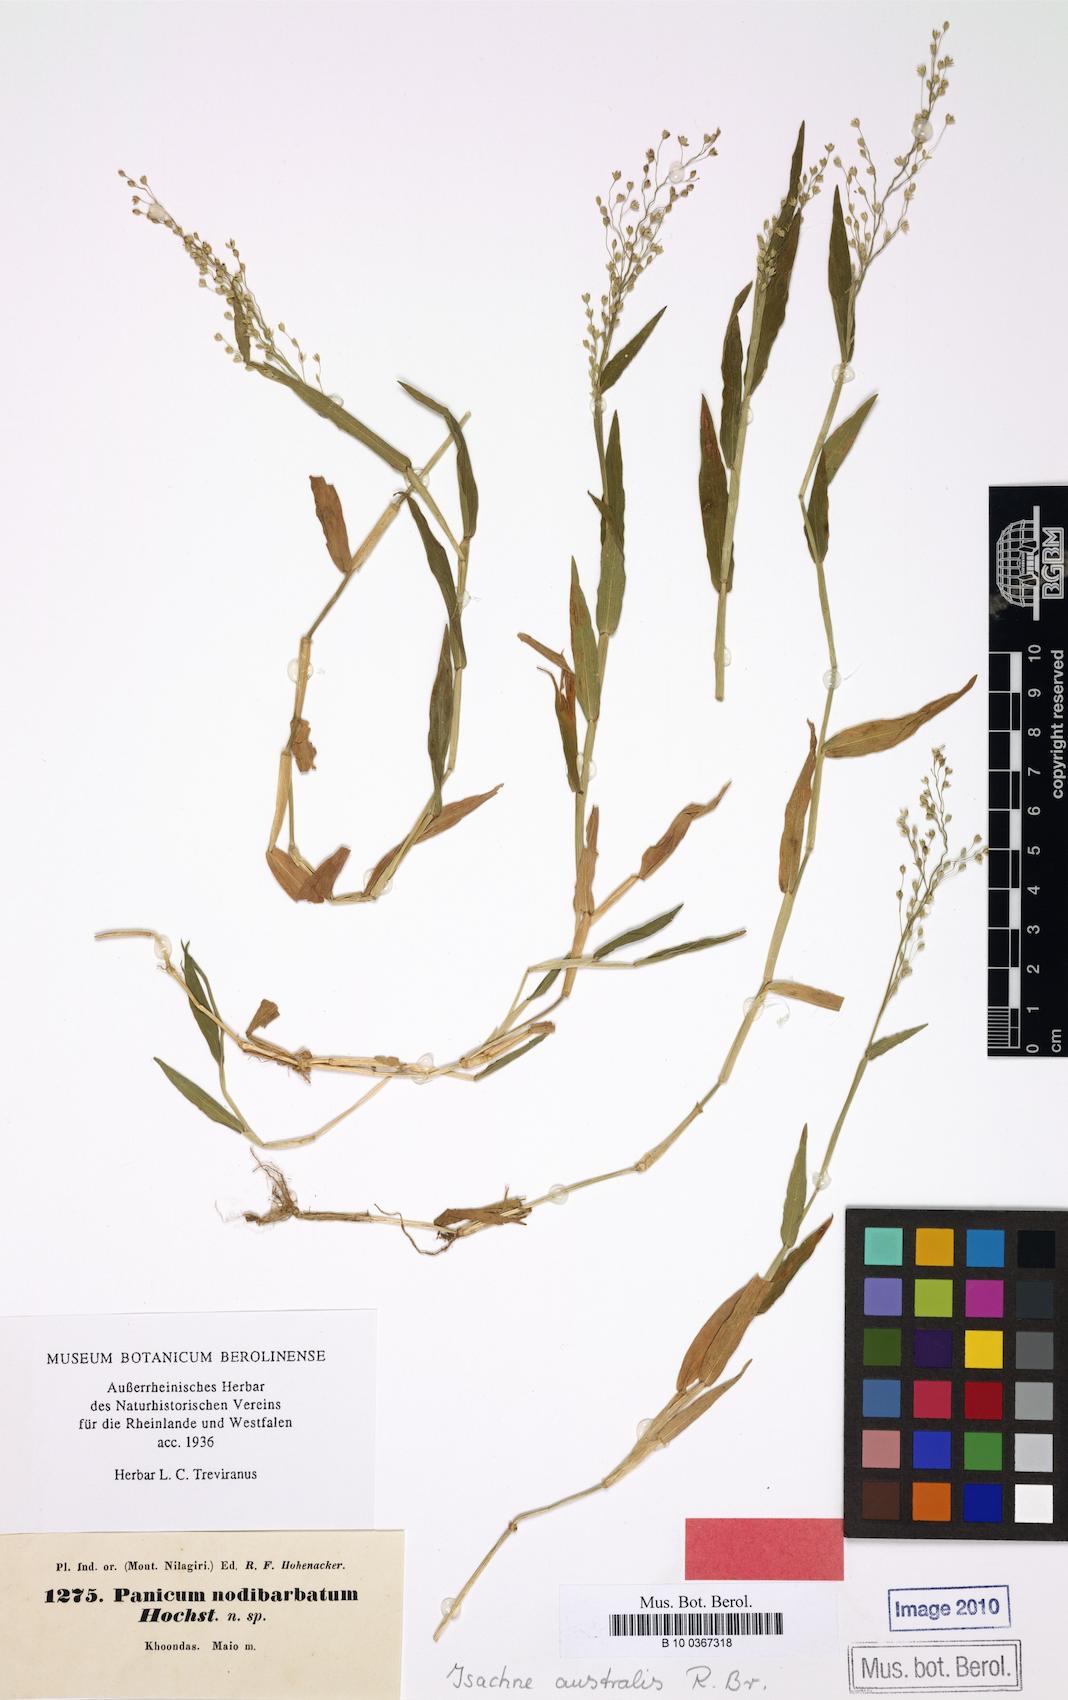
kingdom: Plantae
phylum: Tracheophyta
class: Liliopsida
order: Poales
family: Poaceae
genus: Isachne
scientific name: Isachne globosa
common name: Swamp millet
